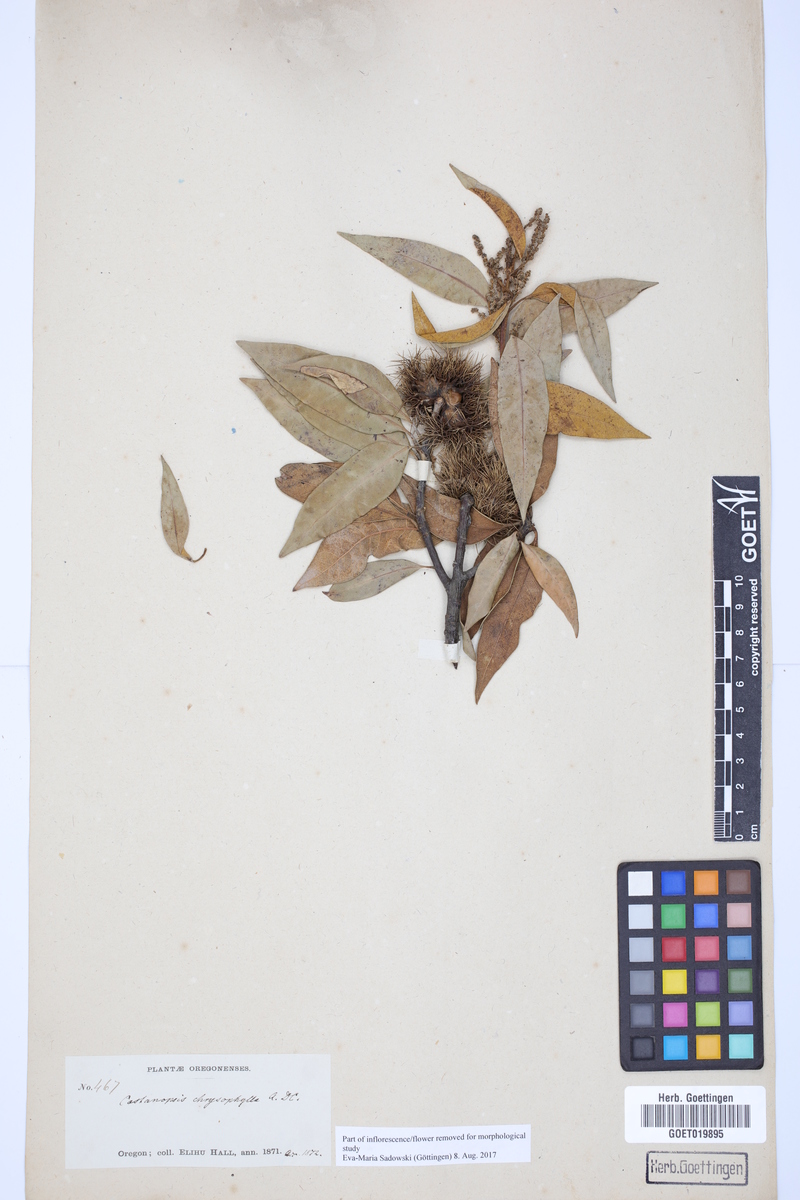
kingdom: Plantae
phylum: Tracheophyta
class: Magnoliopsida
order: Fagales
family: Fagaceae
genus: Chrysolepis
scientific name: Chrysolepis chrysophylla
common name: Giant chinquapin
